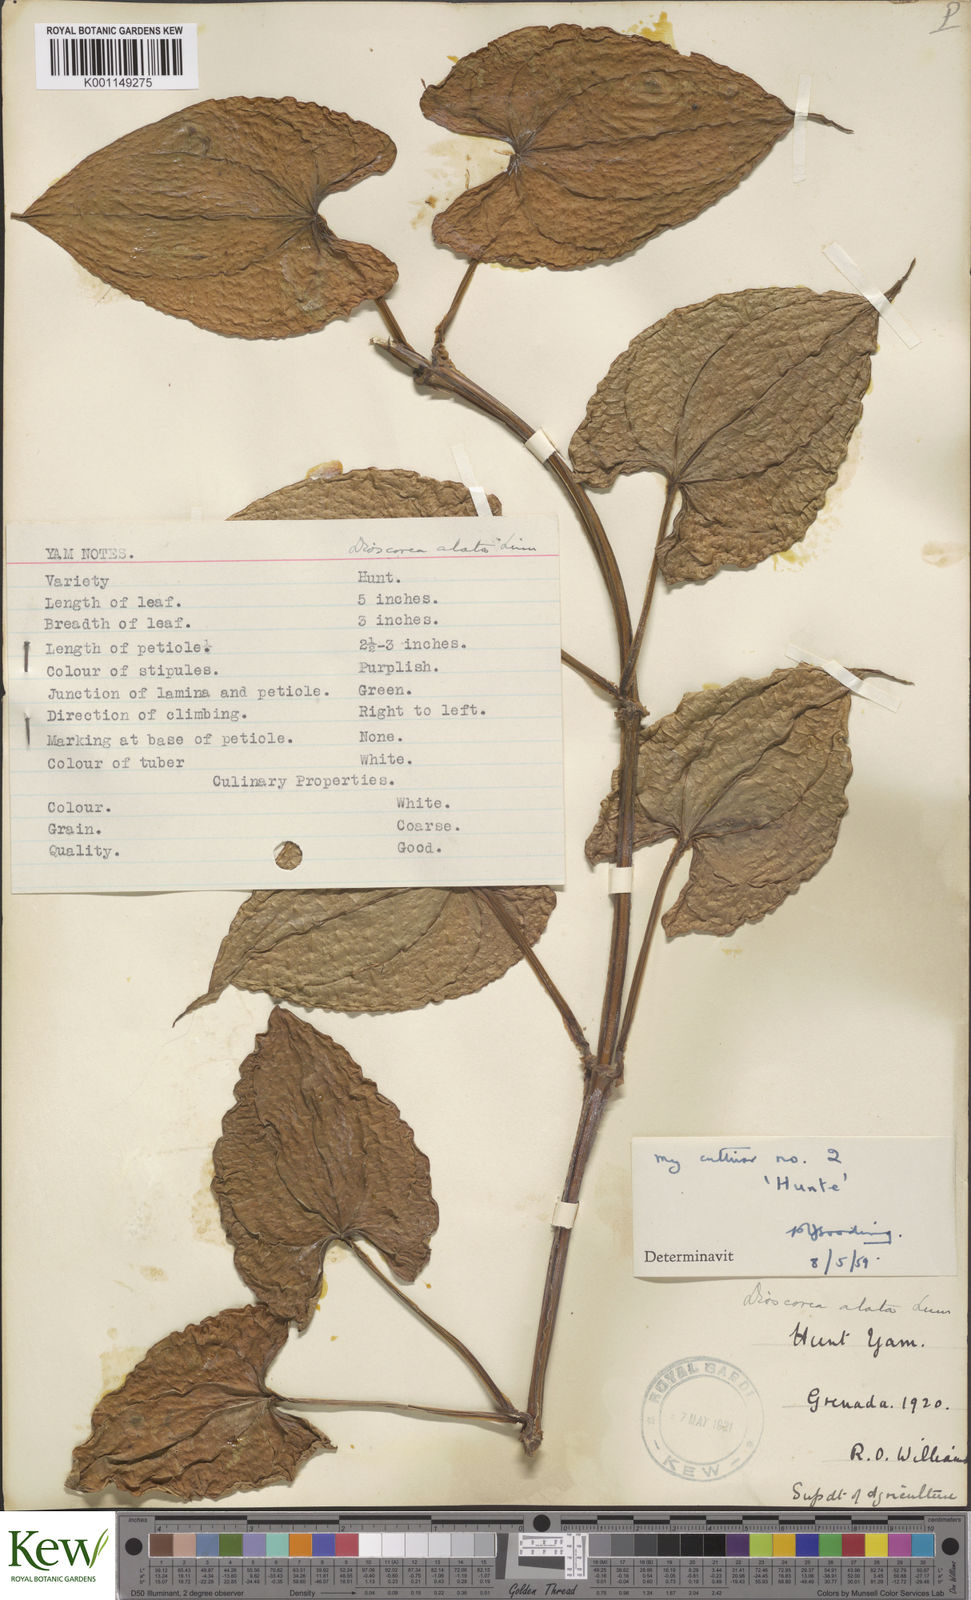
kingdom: Plantae
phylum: Tracheophyta
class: Liliopsida
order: Dioscoreales
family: Dioscoreaceae
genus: Dioscorea
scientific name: Dioscorea alata
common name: Water yam
